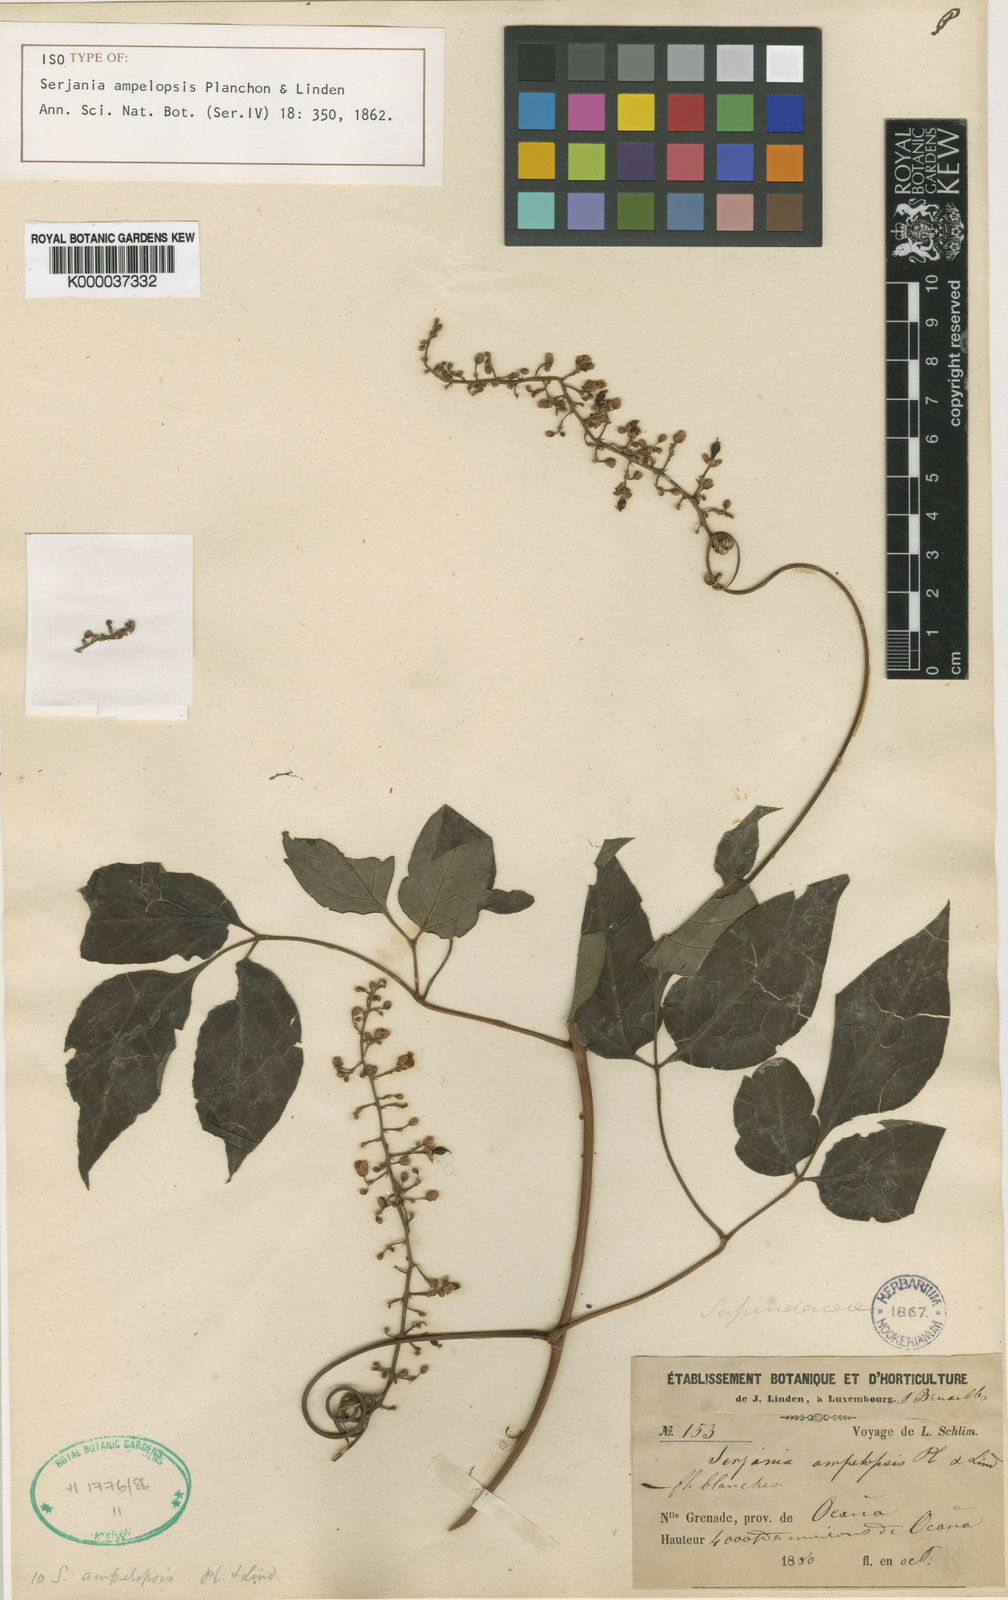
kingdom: Plantae
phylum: Tracheophyta
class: Magnoliopsida
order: Sapindales
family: Sapindaceae
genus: Serjania
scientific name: Serjania ampelopsis
